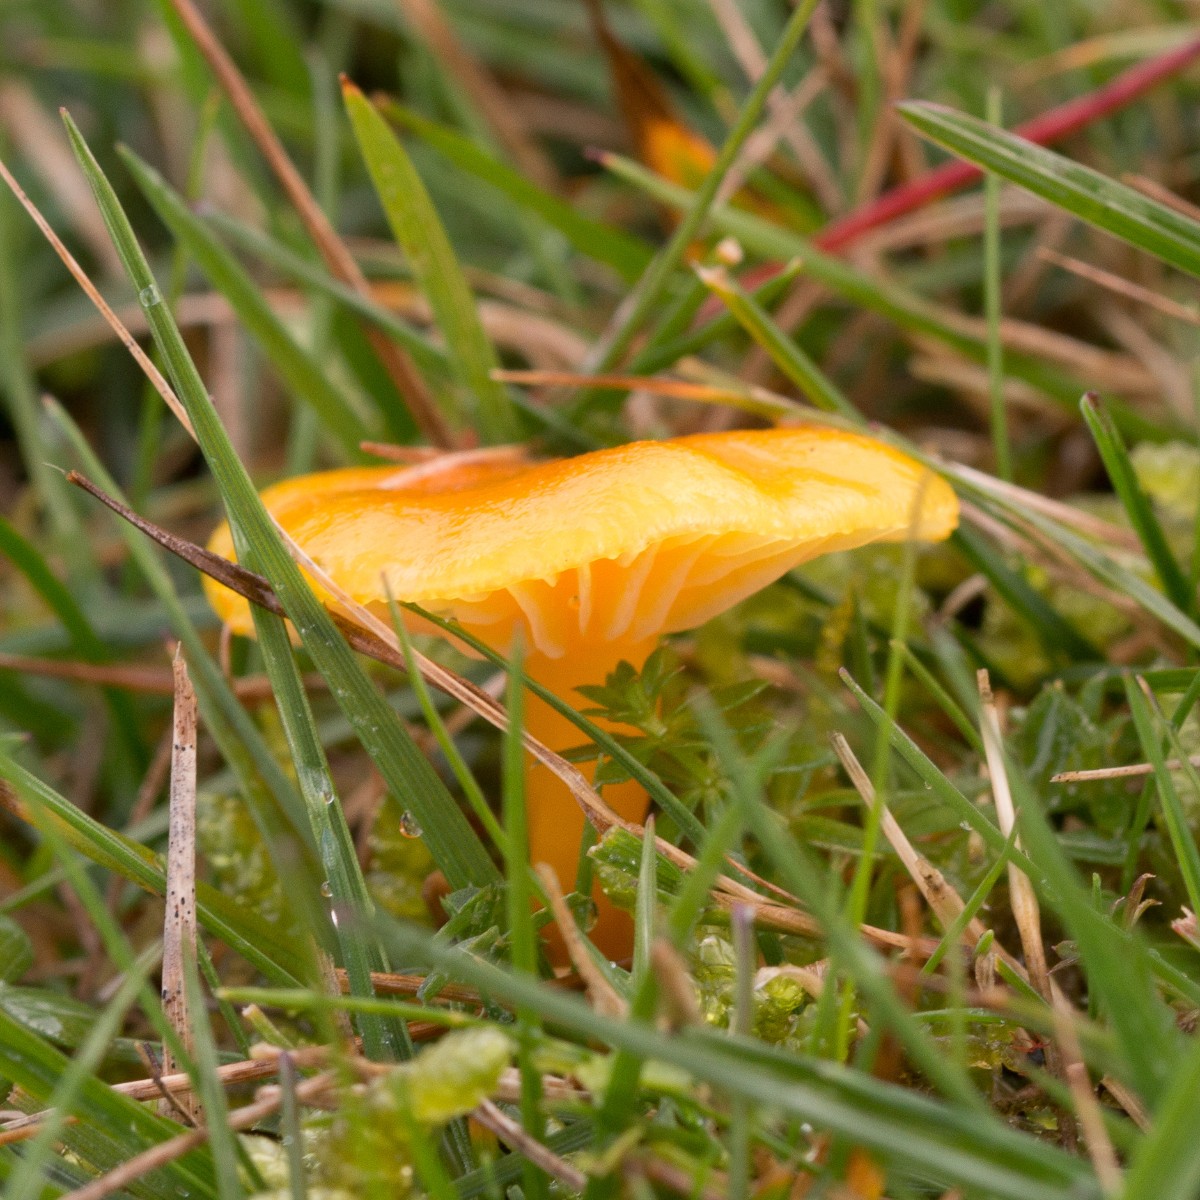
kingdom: Fungi
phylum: Basidiomycota
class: Agaricomycetes
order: Agaricales
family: Hygrophoraceae
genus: Hygrocybe
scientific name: Hygrocybe ceracea
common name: voksgul vokshat
